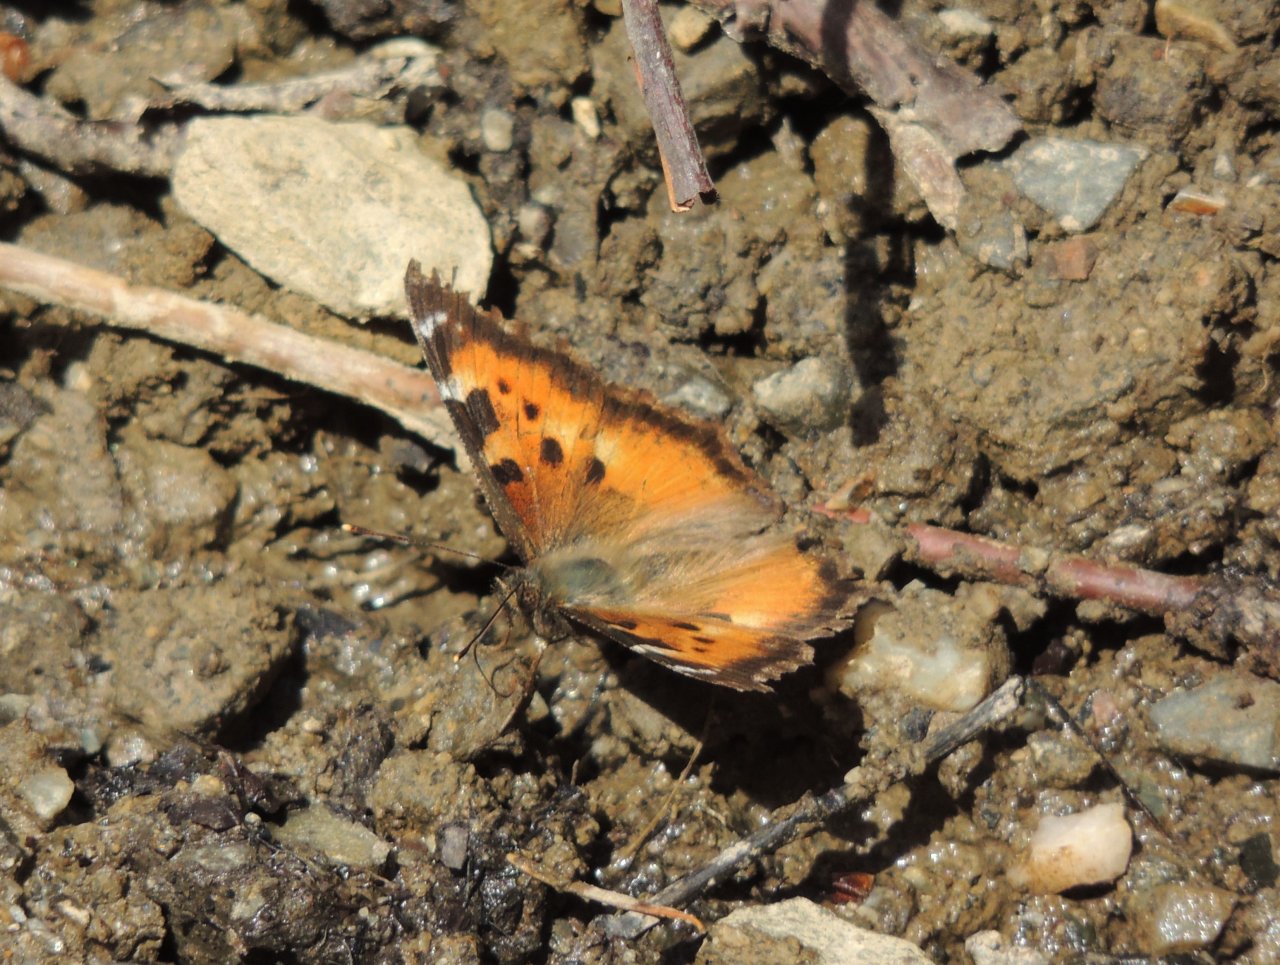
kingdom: Animalia
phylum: Arthropoda
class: Insecta
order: Lepidoptera
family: Nymphalidae
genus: Nymphalis
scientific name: Nymphalis californica
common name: California Tortoiseshell
